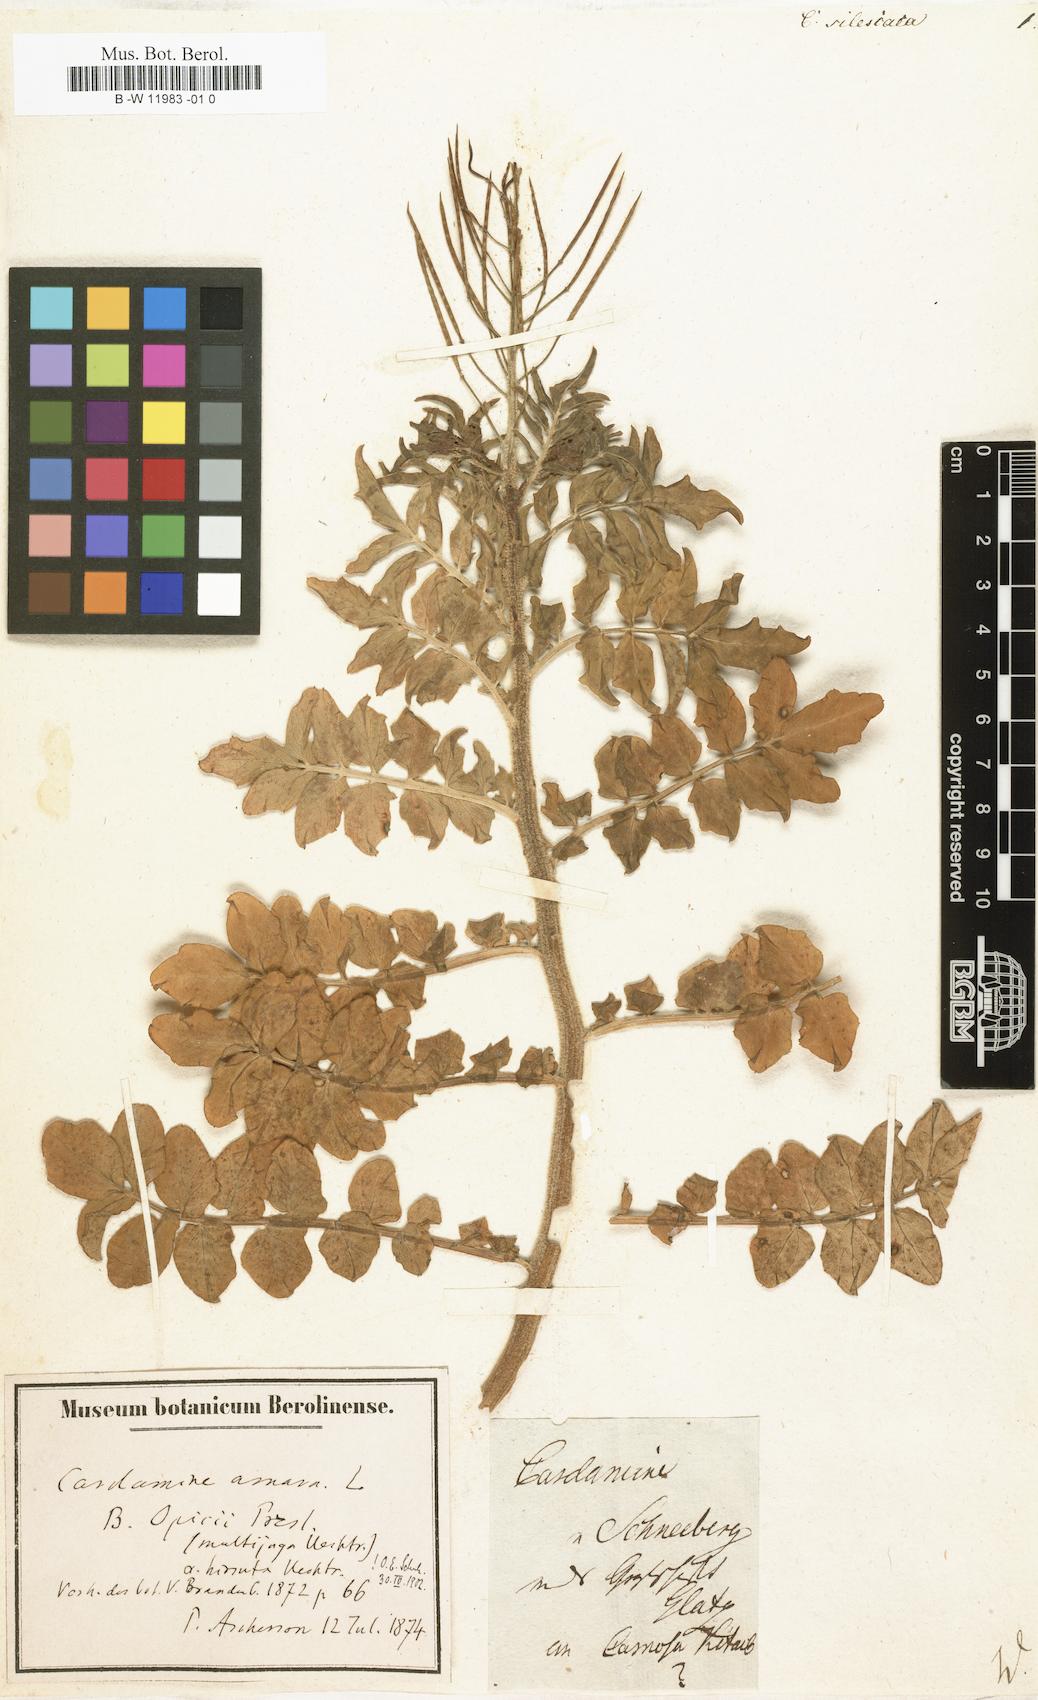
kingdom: Plantae
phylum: Tracheophyta
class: Magnoliopsida
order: Brassicales
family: Brassicaceae
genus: Cardamine
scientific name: Cardamine
